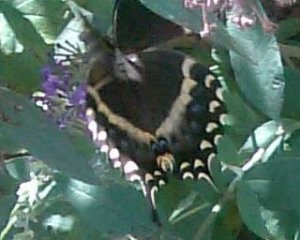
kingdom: Animalia
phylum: Arthropoda
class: Insecta
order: Lepidoptera
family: Papilionidae
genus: Pterourus
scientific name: Pterourus palamedes
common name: Palamedes Swallowtail
